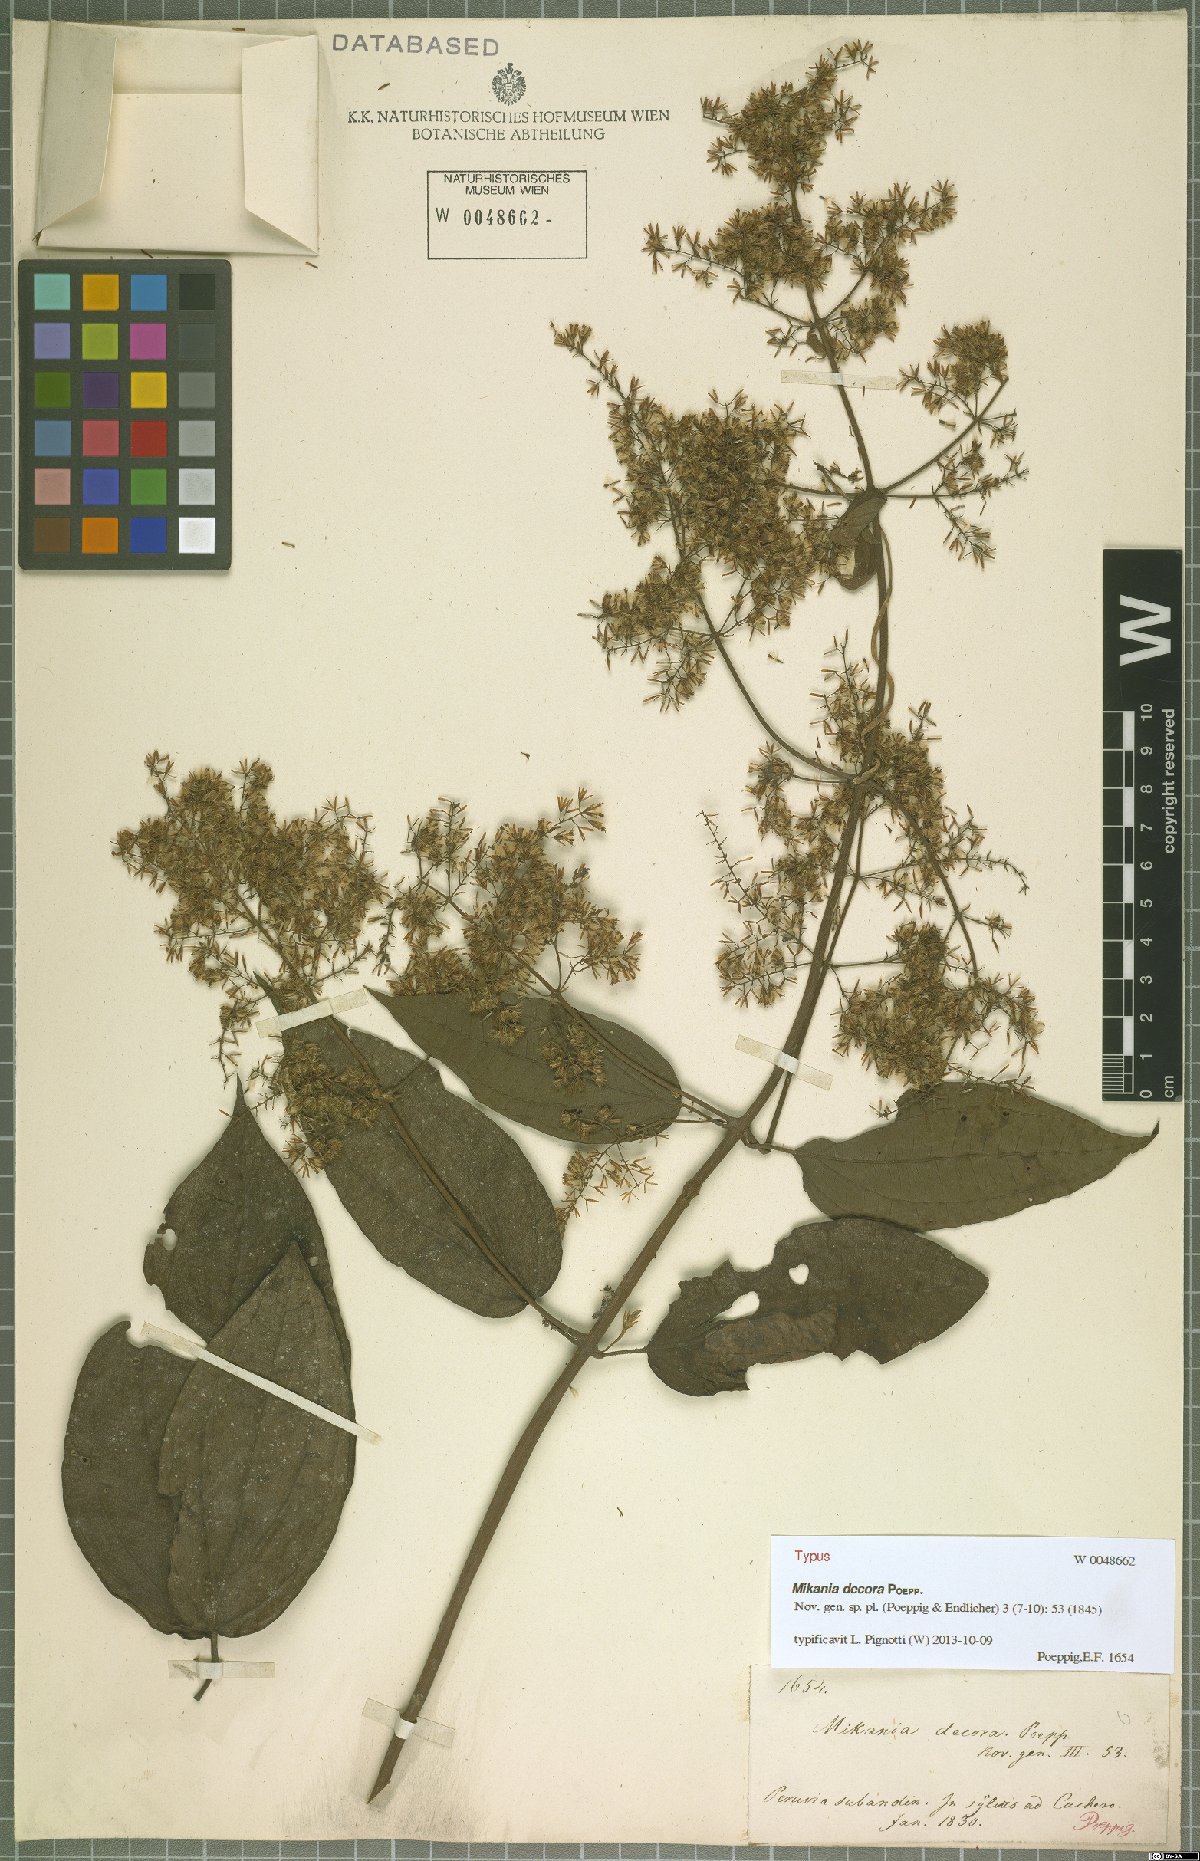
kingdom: Plantae
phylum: Tracheophyta
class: Magnoliopsida
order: Asterales
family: Asteraceae
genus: Mikania
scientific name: Mikania decora
